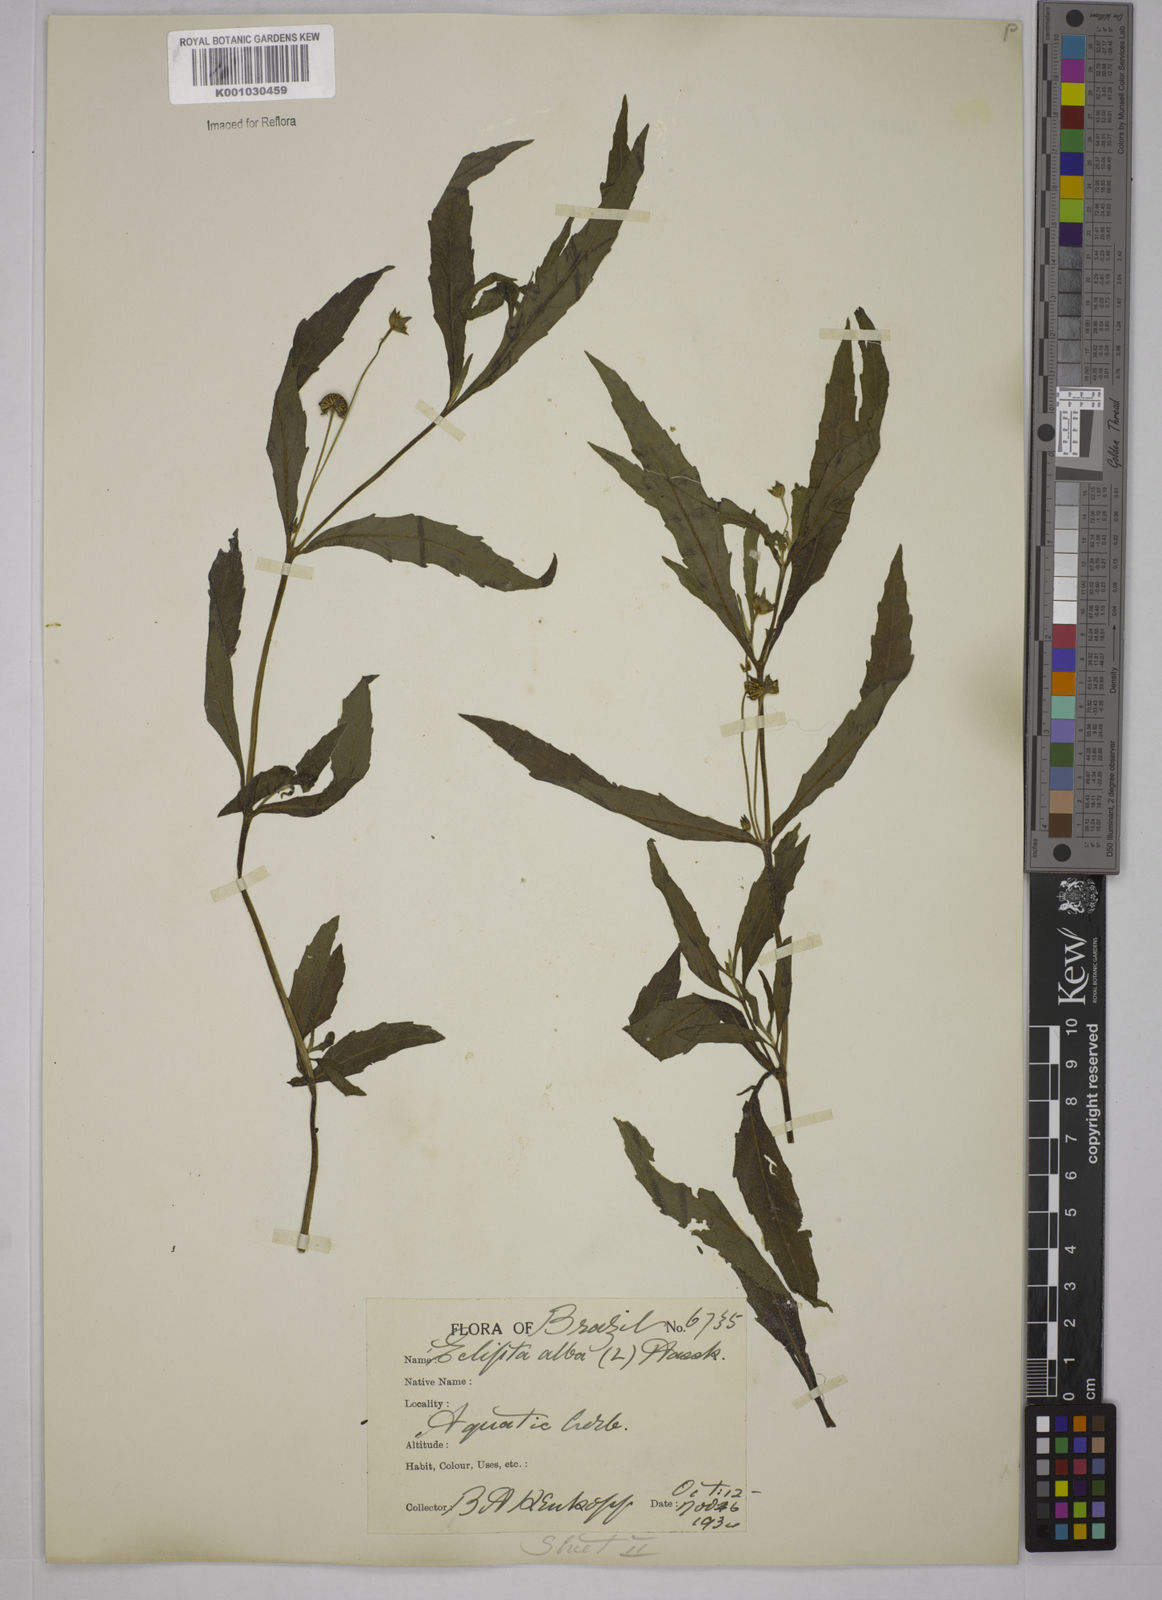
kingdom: Plantae
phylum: Tracheophyta
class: Magnoliopsida
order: Asterales
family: Asteraceae
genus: Eclipta
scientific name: Eclipta prostrata
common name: False daisy
